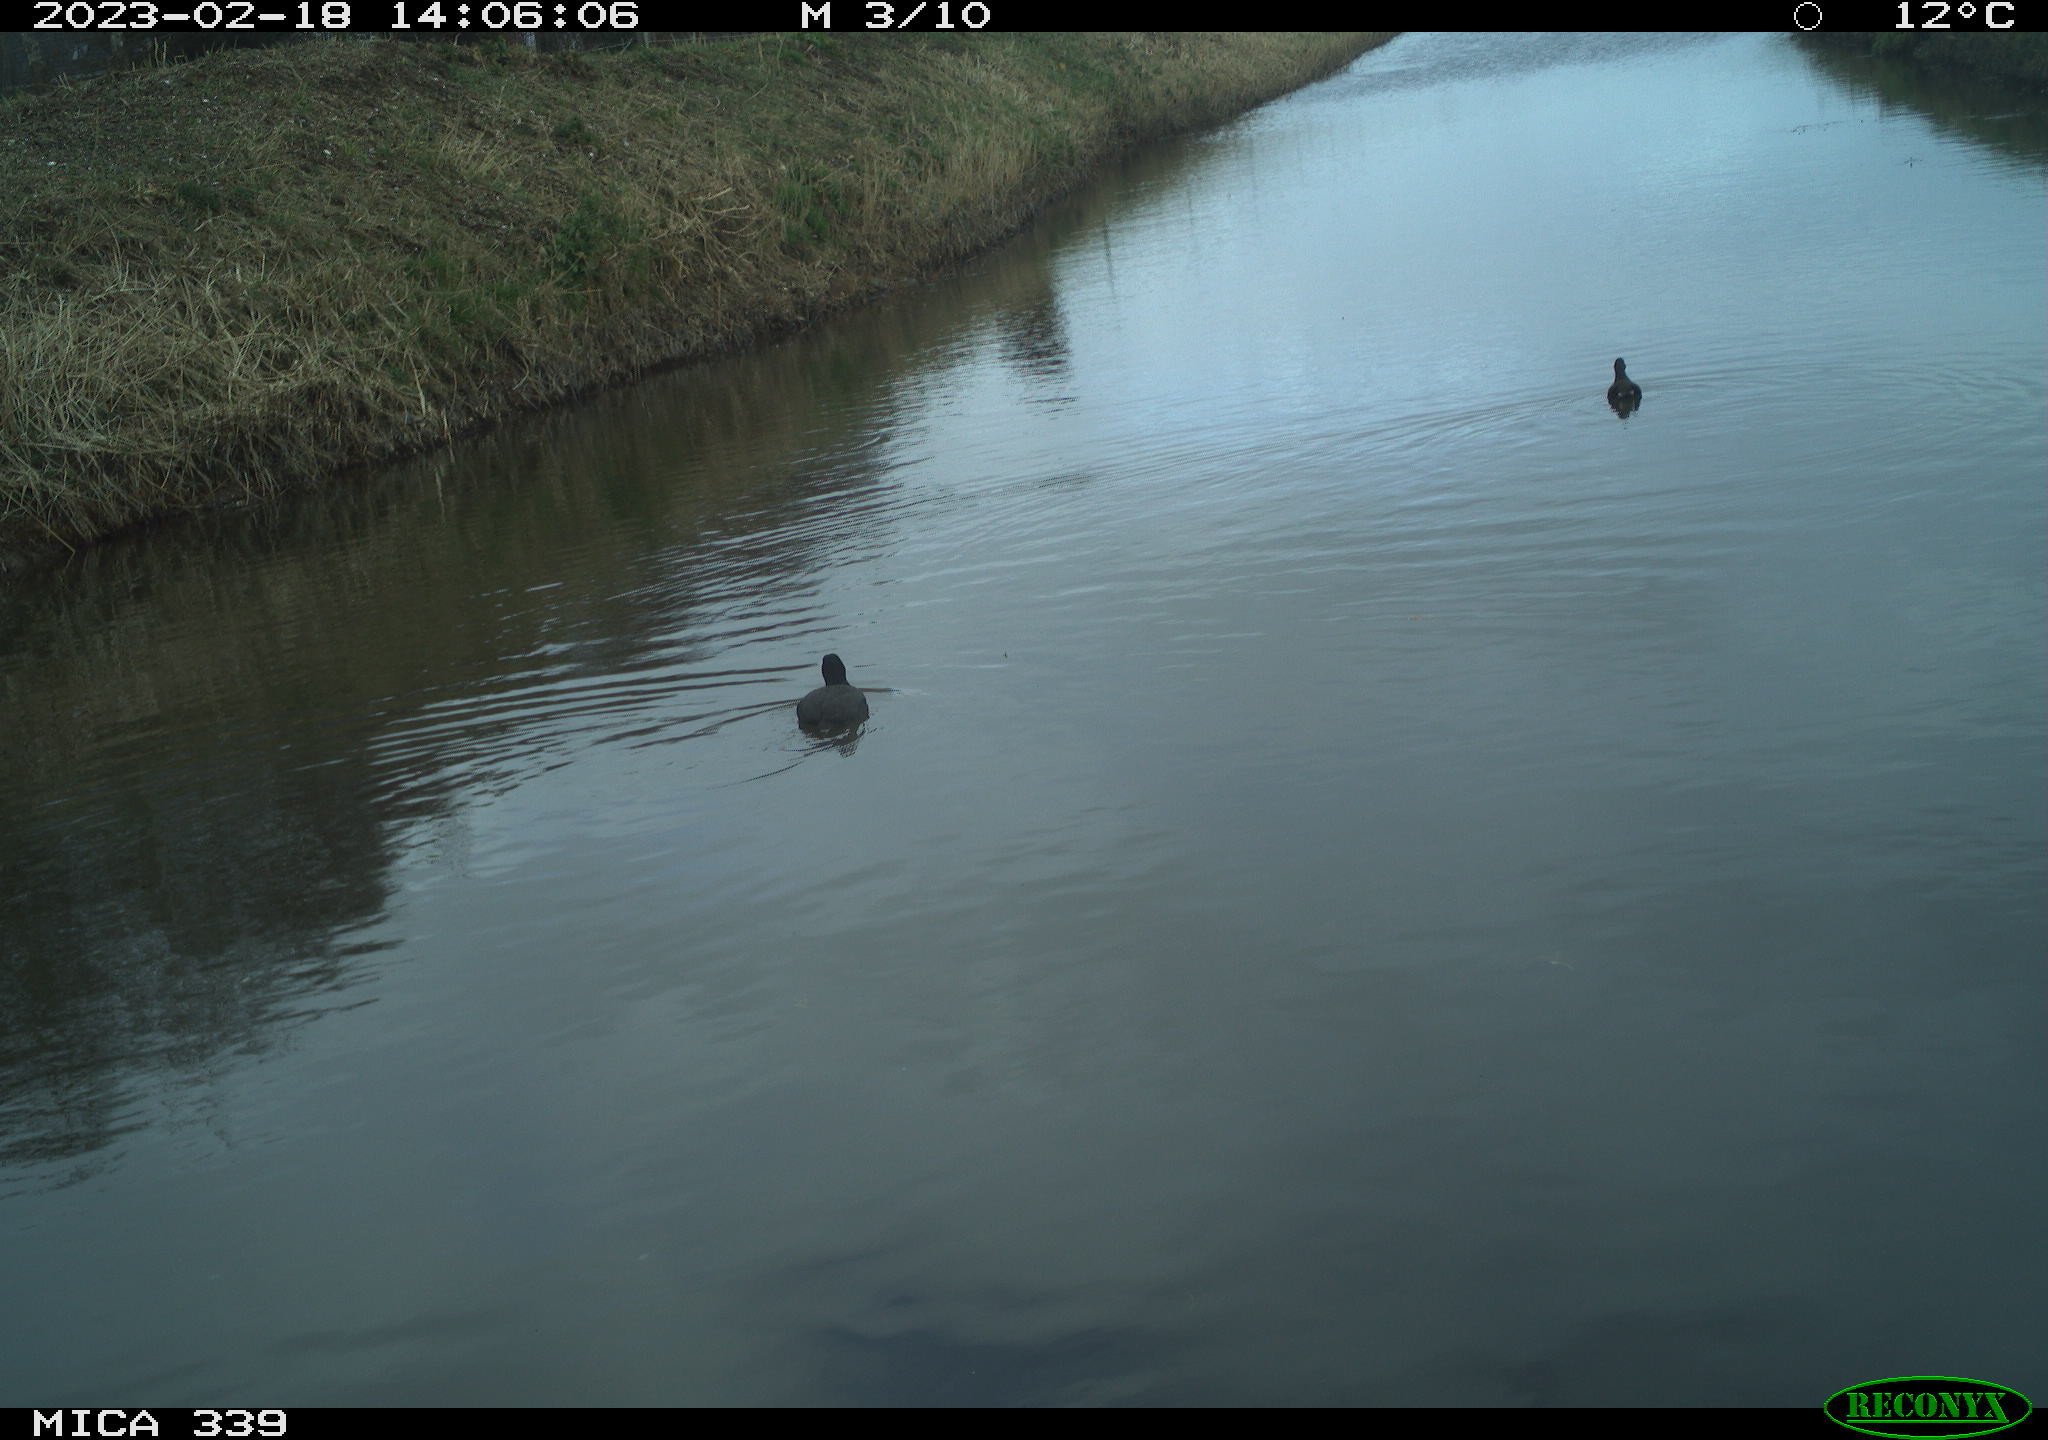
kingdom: Animalia
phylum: Chordata
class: Aves
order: Gruiformes
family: Rallidae
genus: Fulica
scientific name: Fulica atra
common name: Eurasian coot
